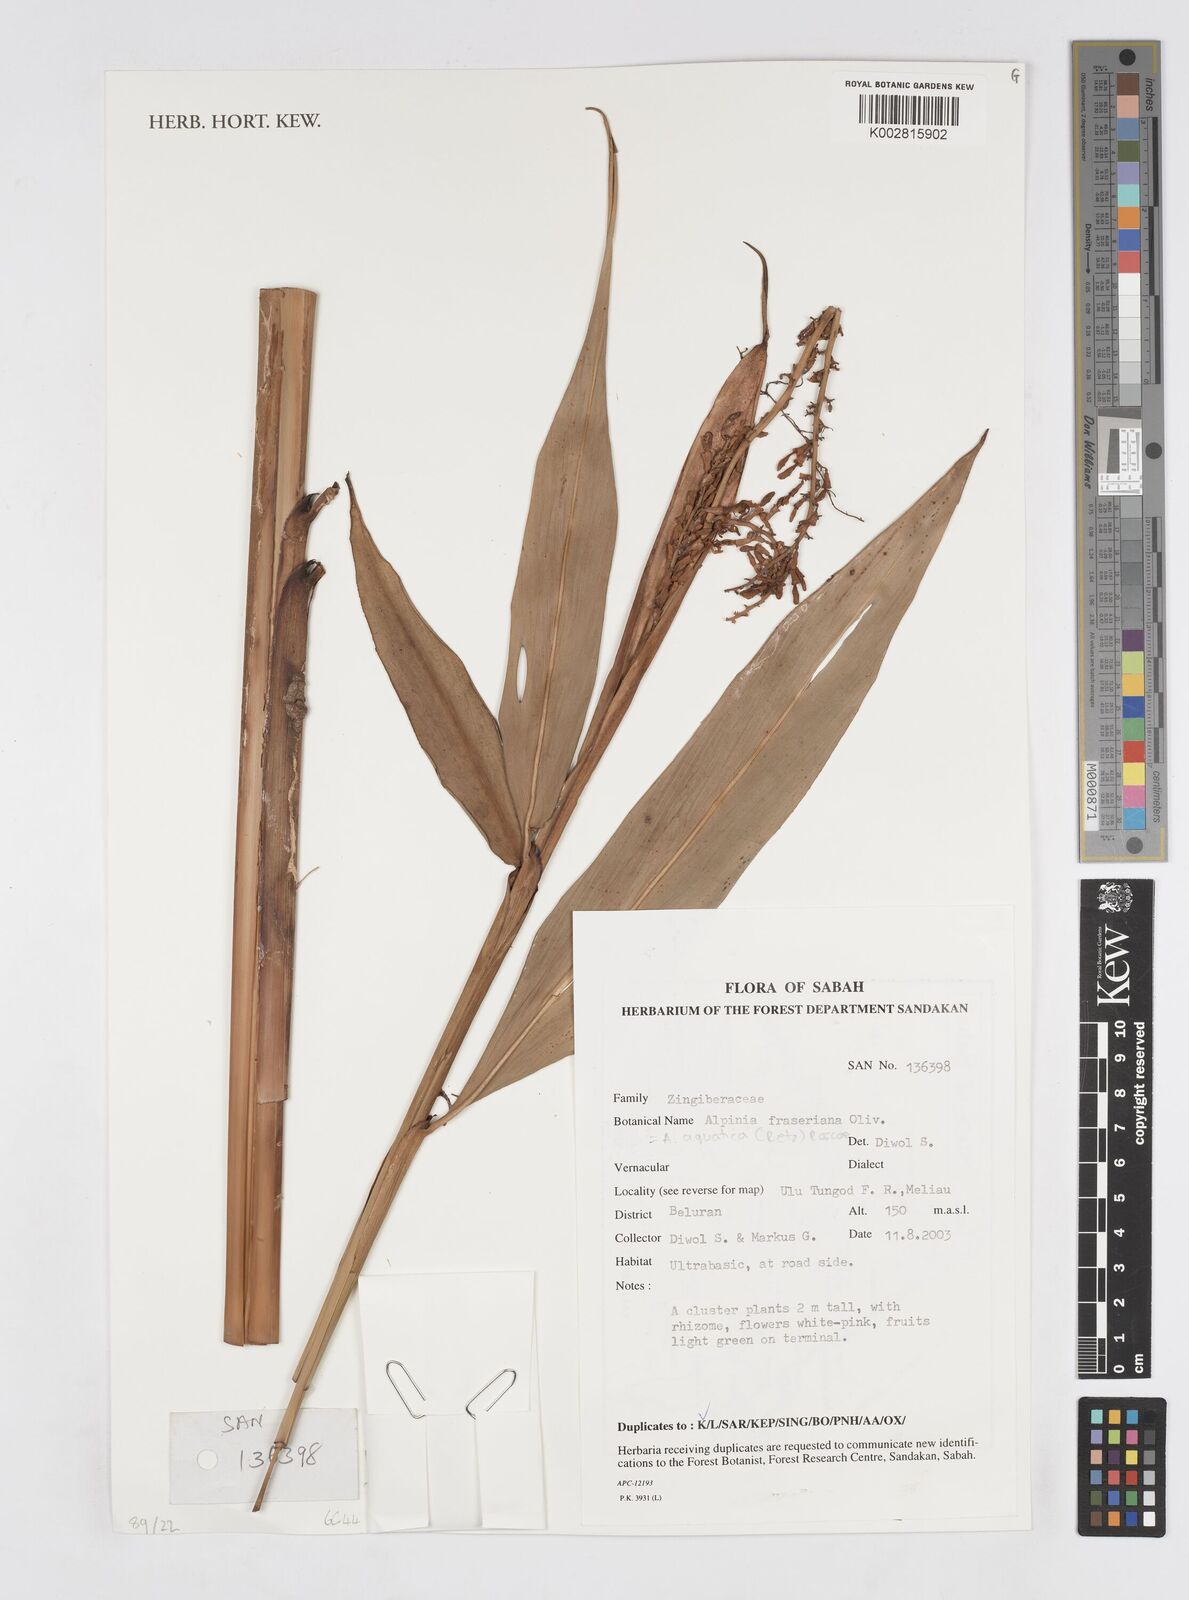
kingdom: Plantae
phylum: Tracheophyta
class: Liliopsida
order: Zingiberales
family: Zingiberaceae
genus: Alpinia
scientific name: Alpinia aquatica
